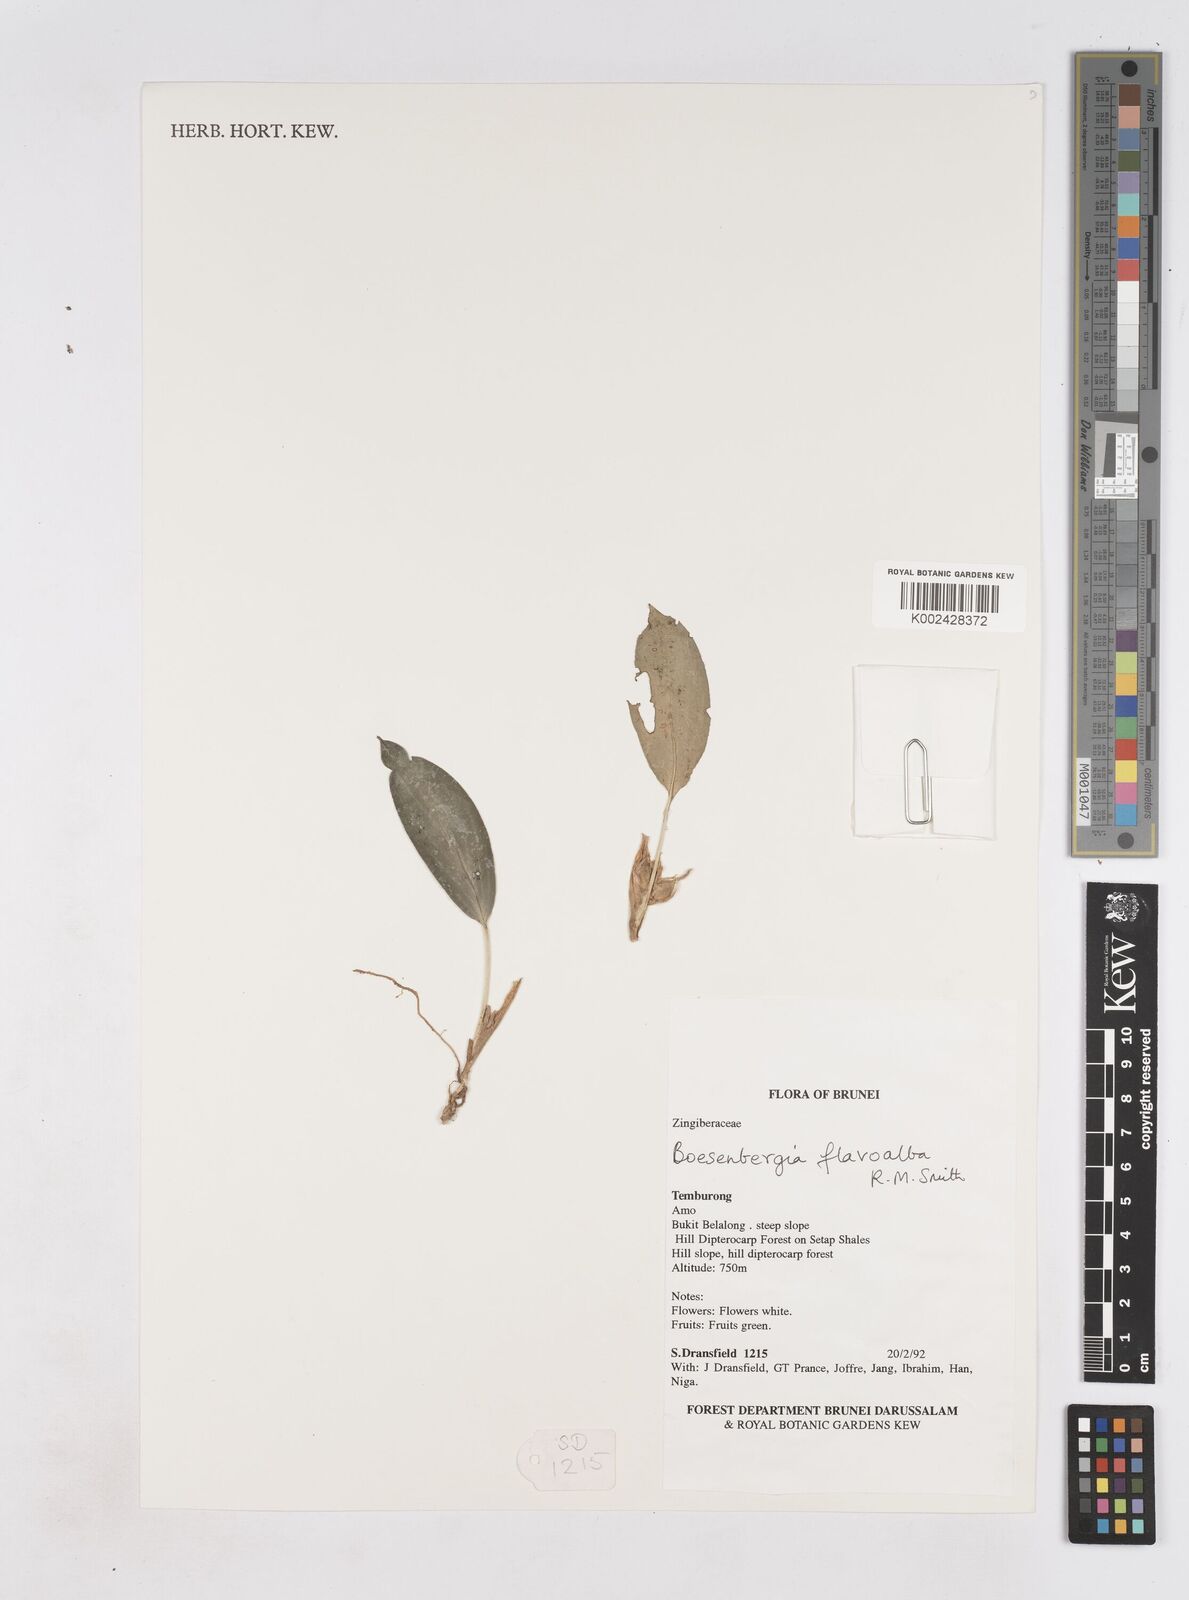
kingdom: Plantae
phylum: Tracheophyta
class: Liliopsida
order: Zingiberales
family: Zingiberaceae
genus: Boesenbergia
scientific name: Boesenbergia flavoalba
